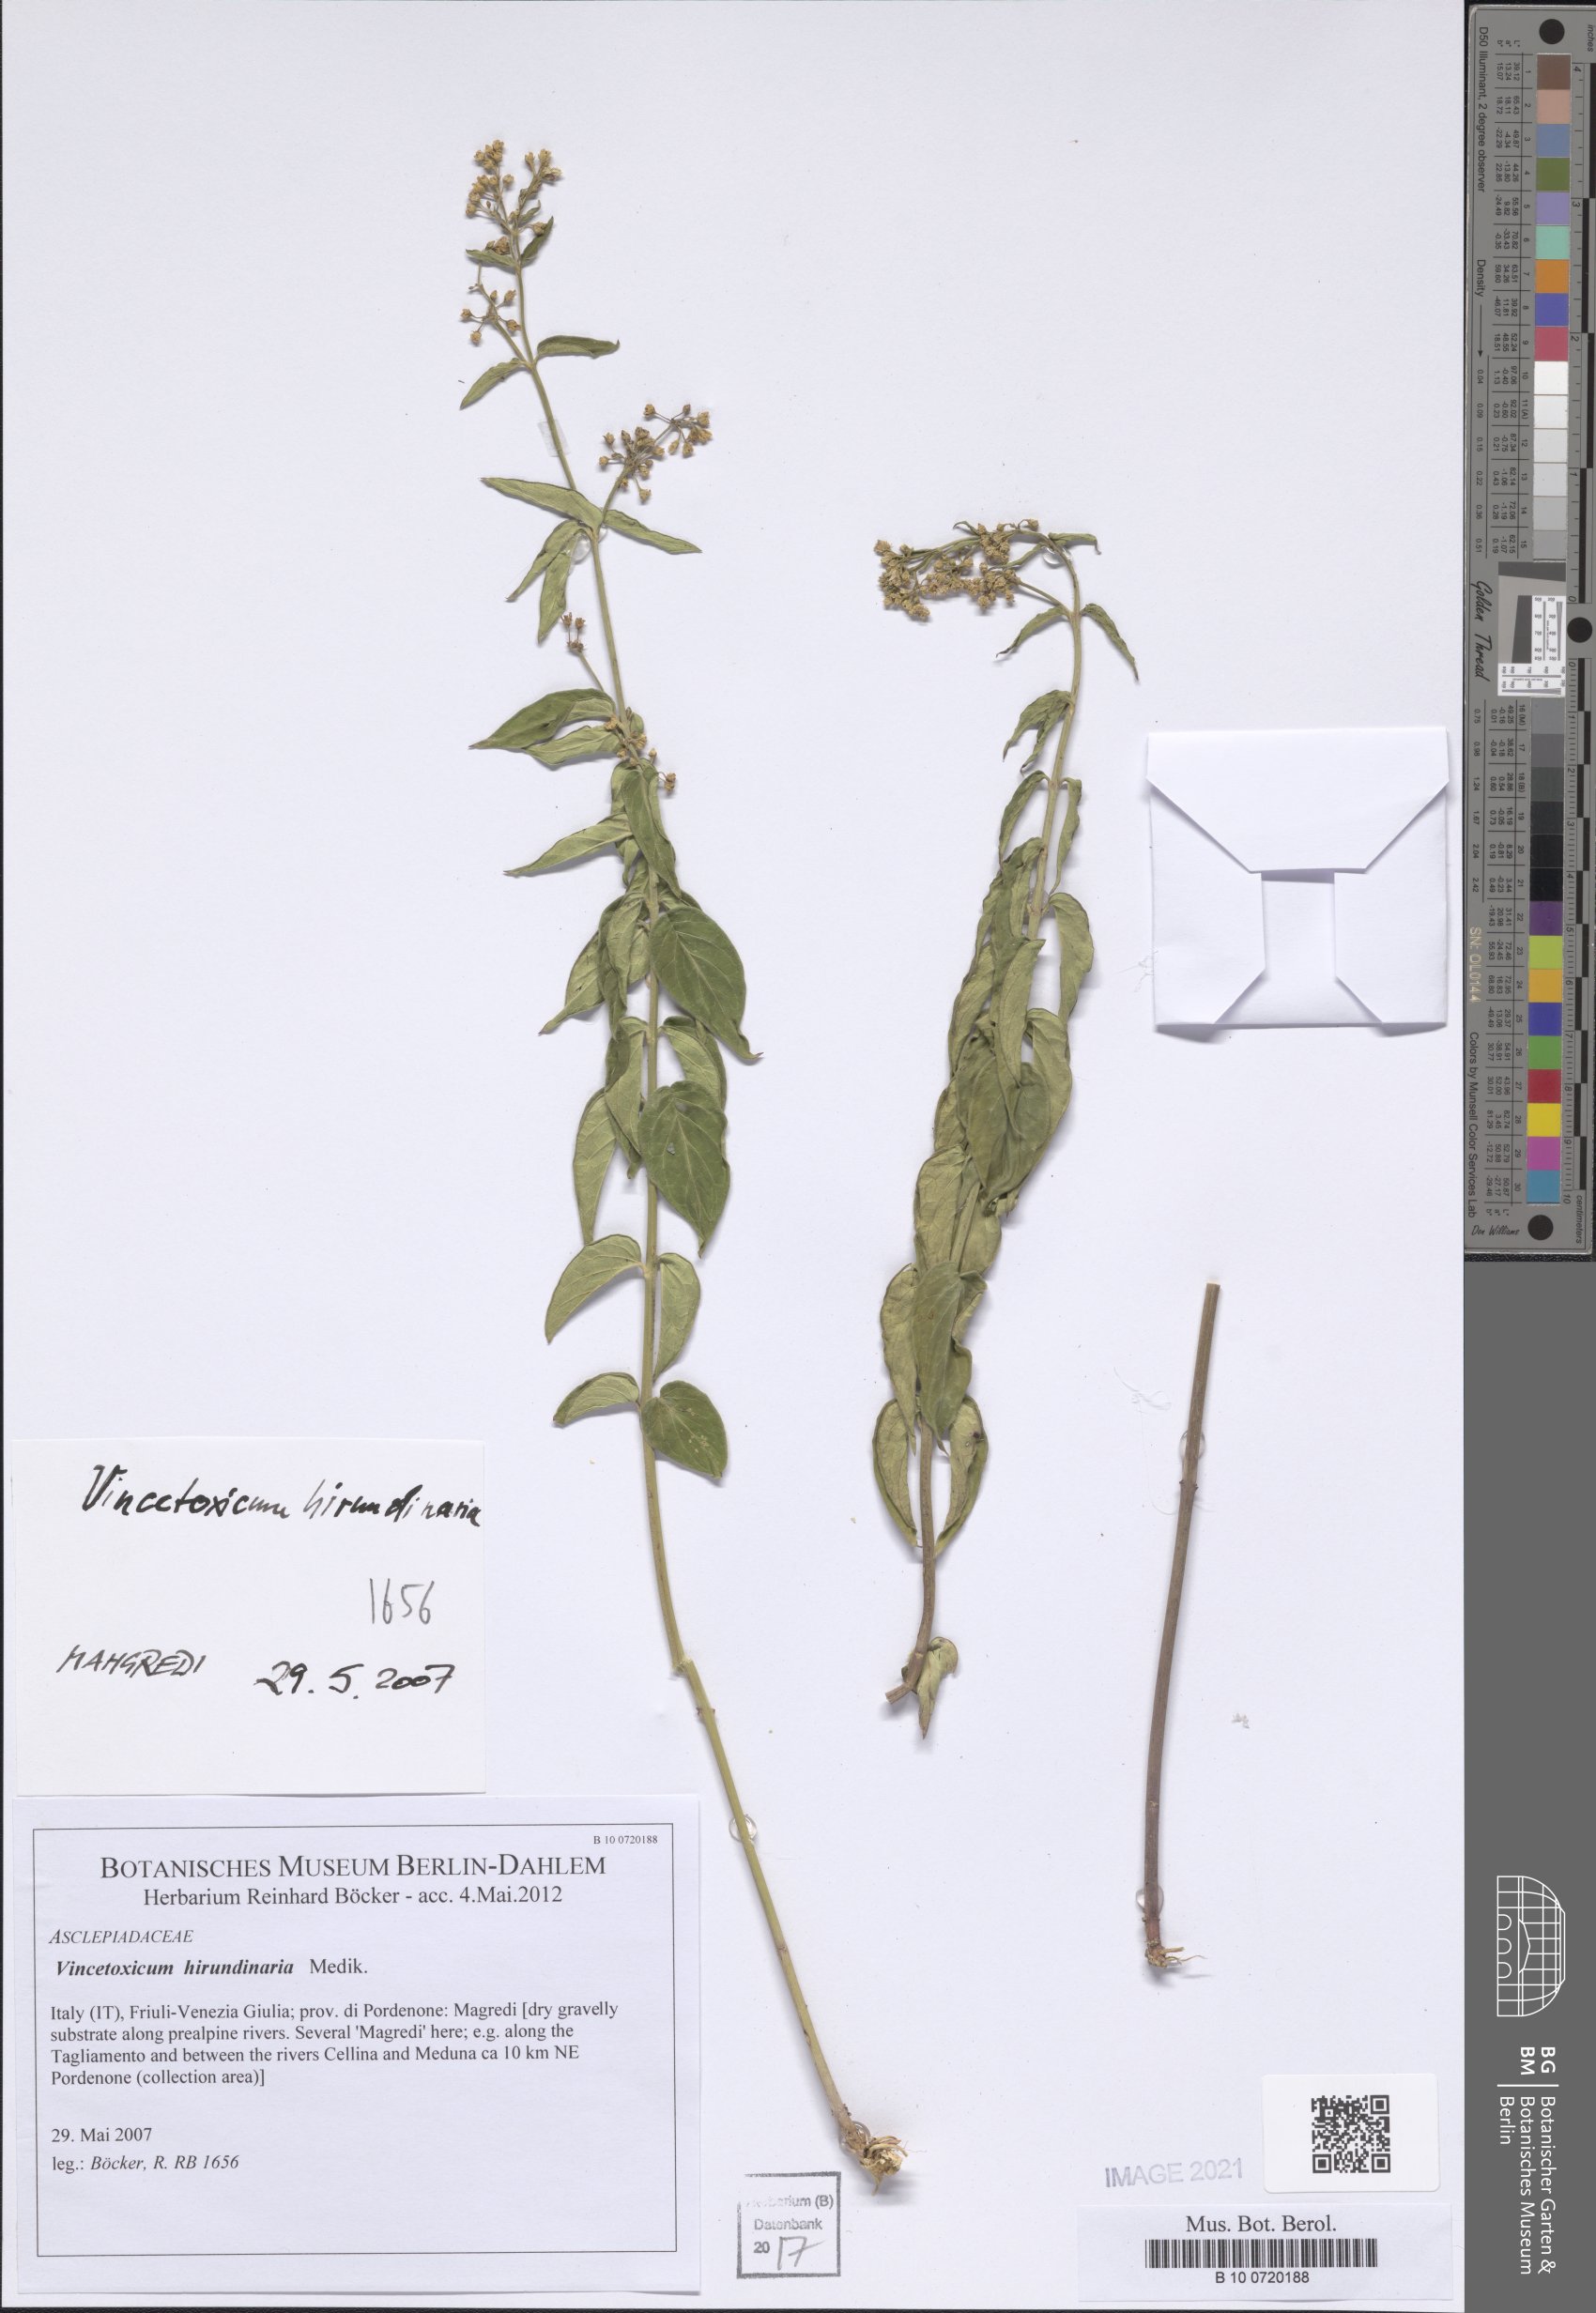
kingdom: Plantae
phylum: Tracheophyta
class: Magnoliopsida
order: Gentianales
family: Apocynaceae
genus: Vincetoxicum
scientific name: Vincetoxicum hirundinaria
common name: White swallowwort
